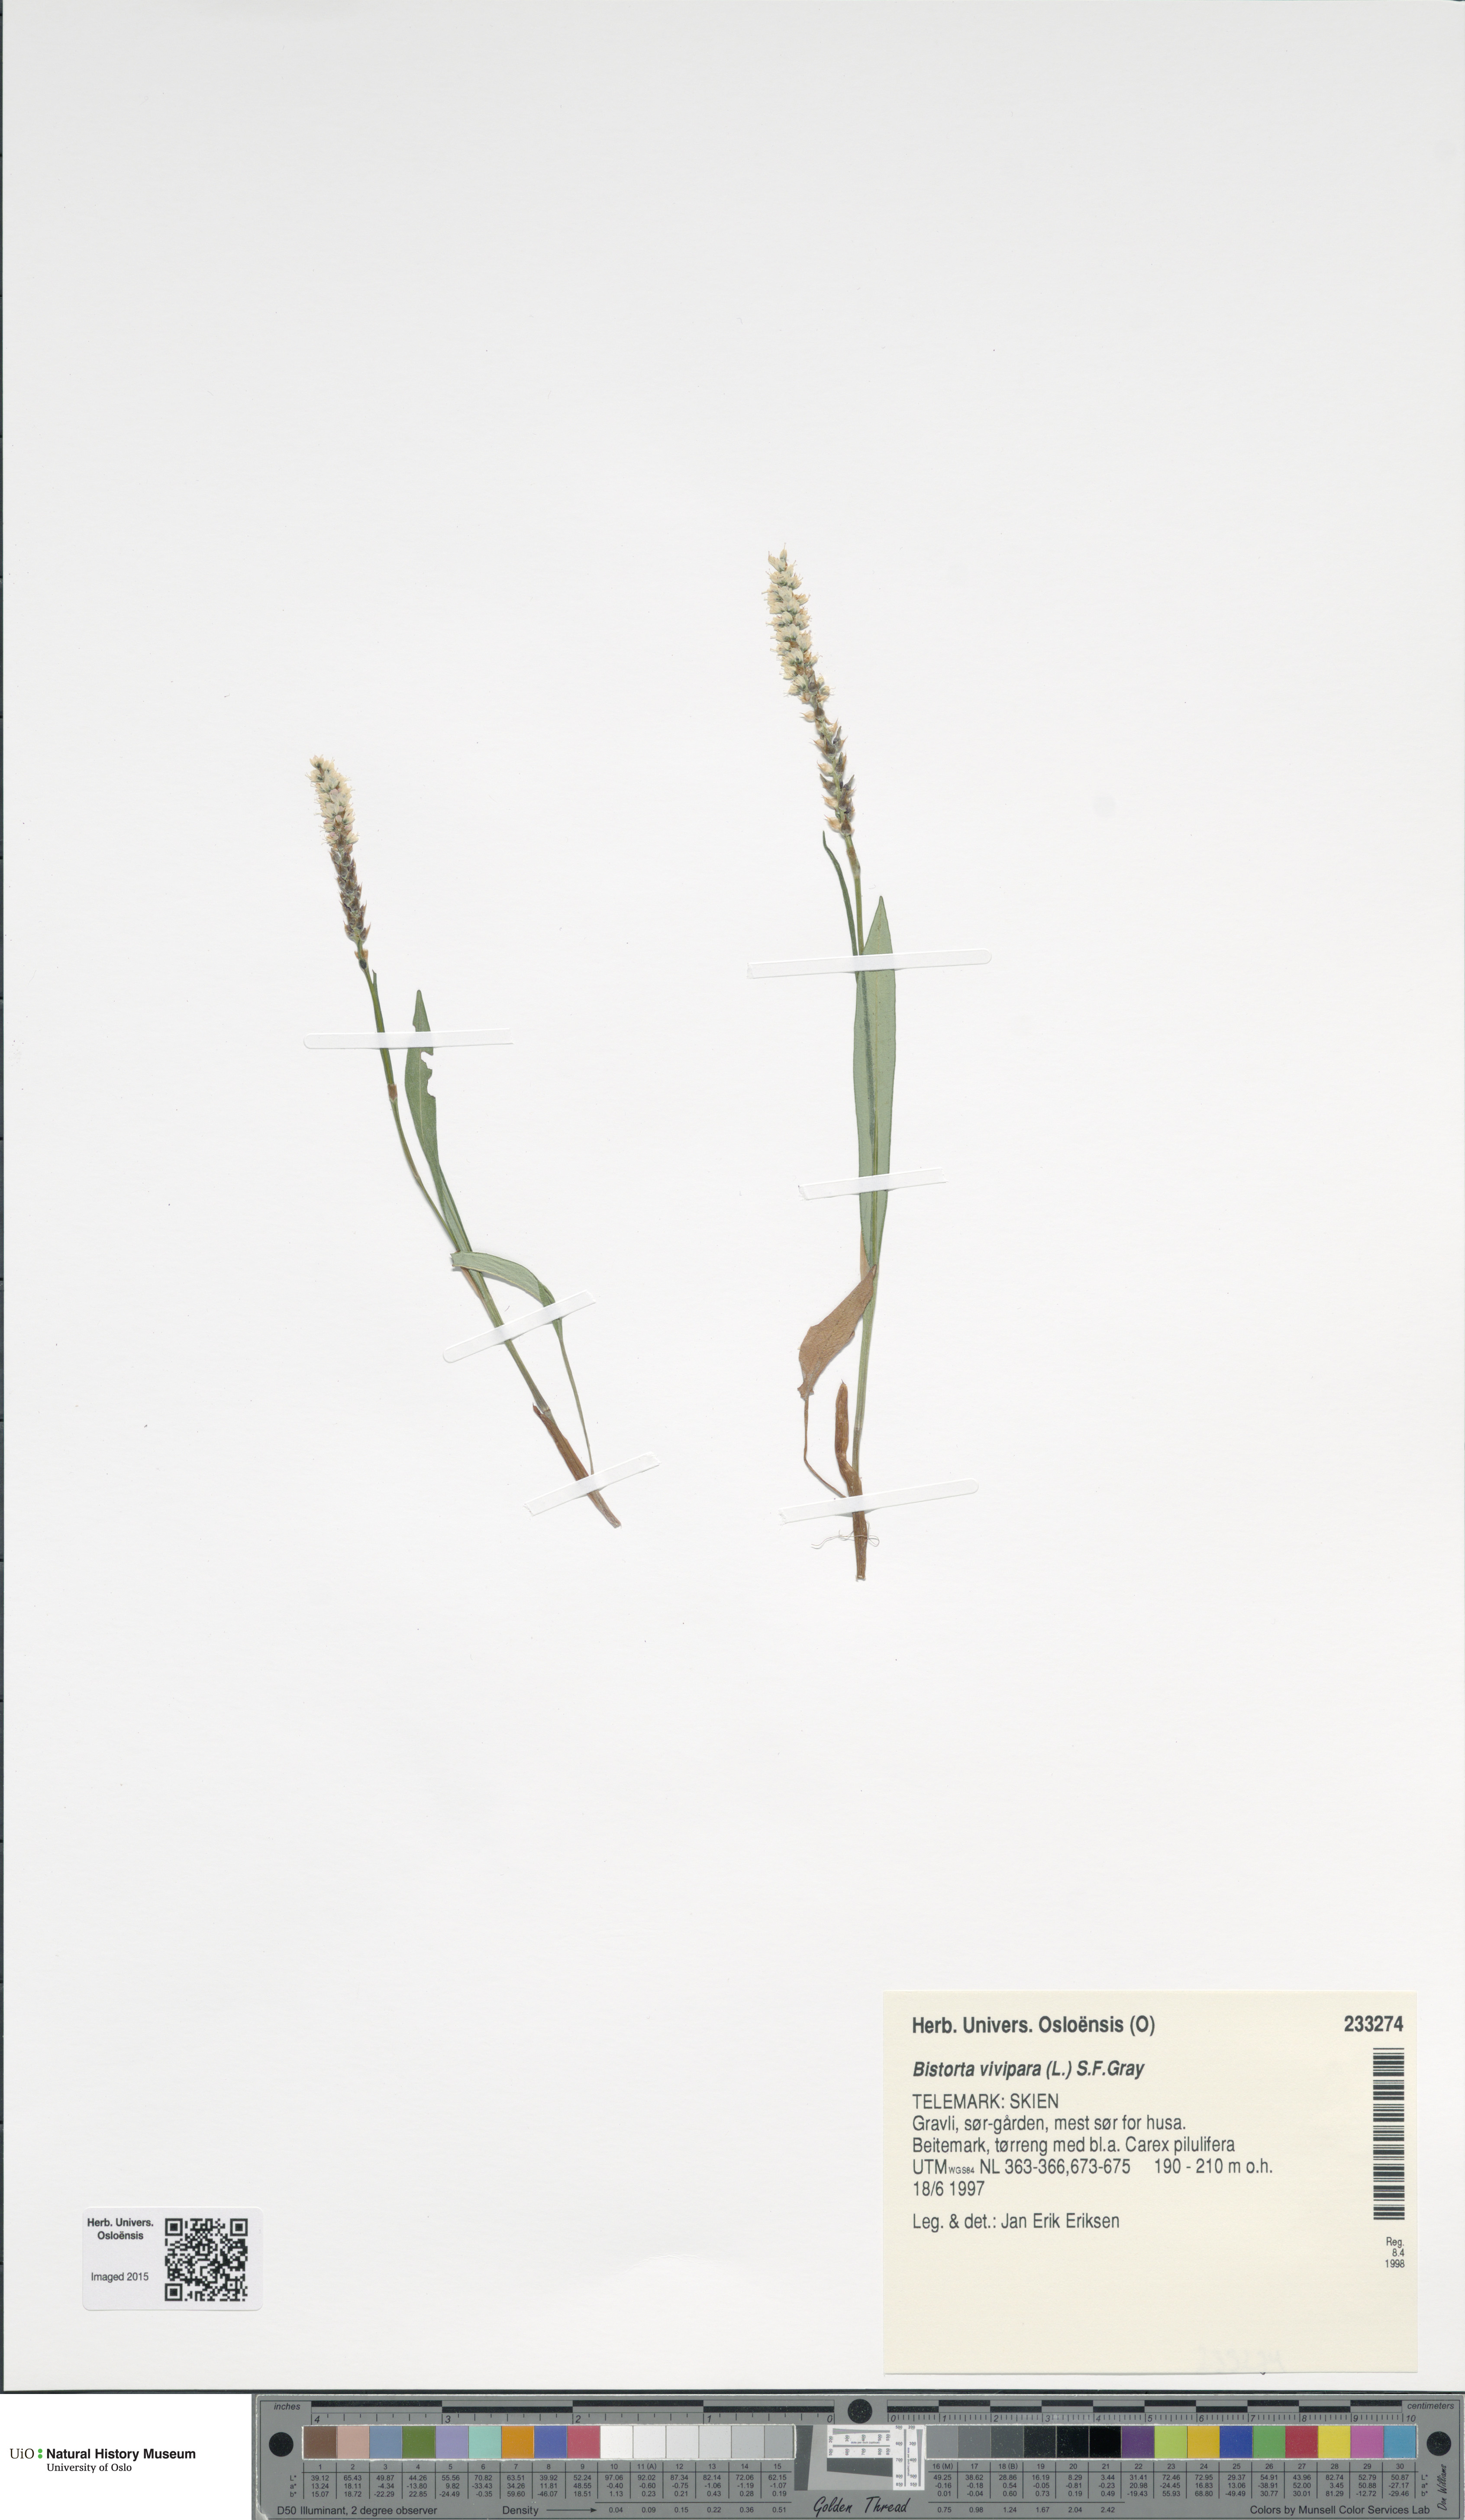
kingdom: Plantae
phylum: Tracheophyta
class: Magnoliopsida
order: Caryophyllales
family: Polygonaceae
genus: Bistorta
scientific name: Bistorta vivipara
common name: Alpine bistort
